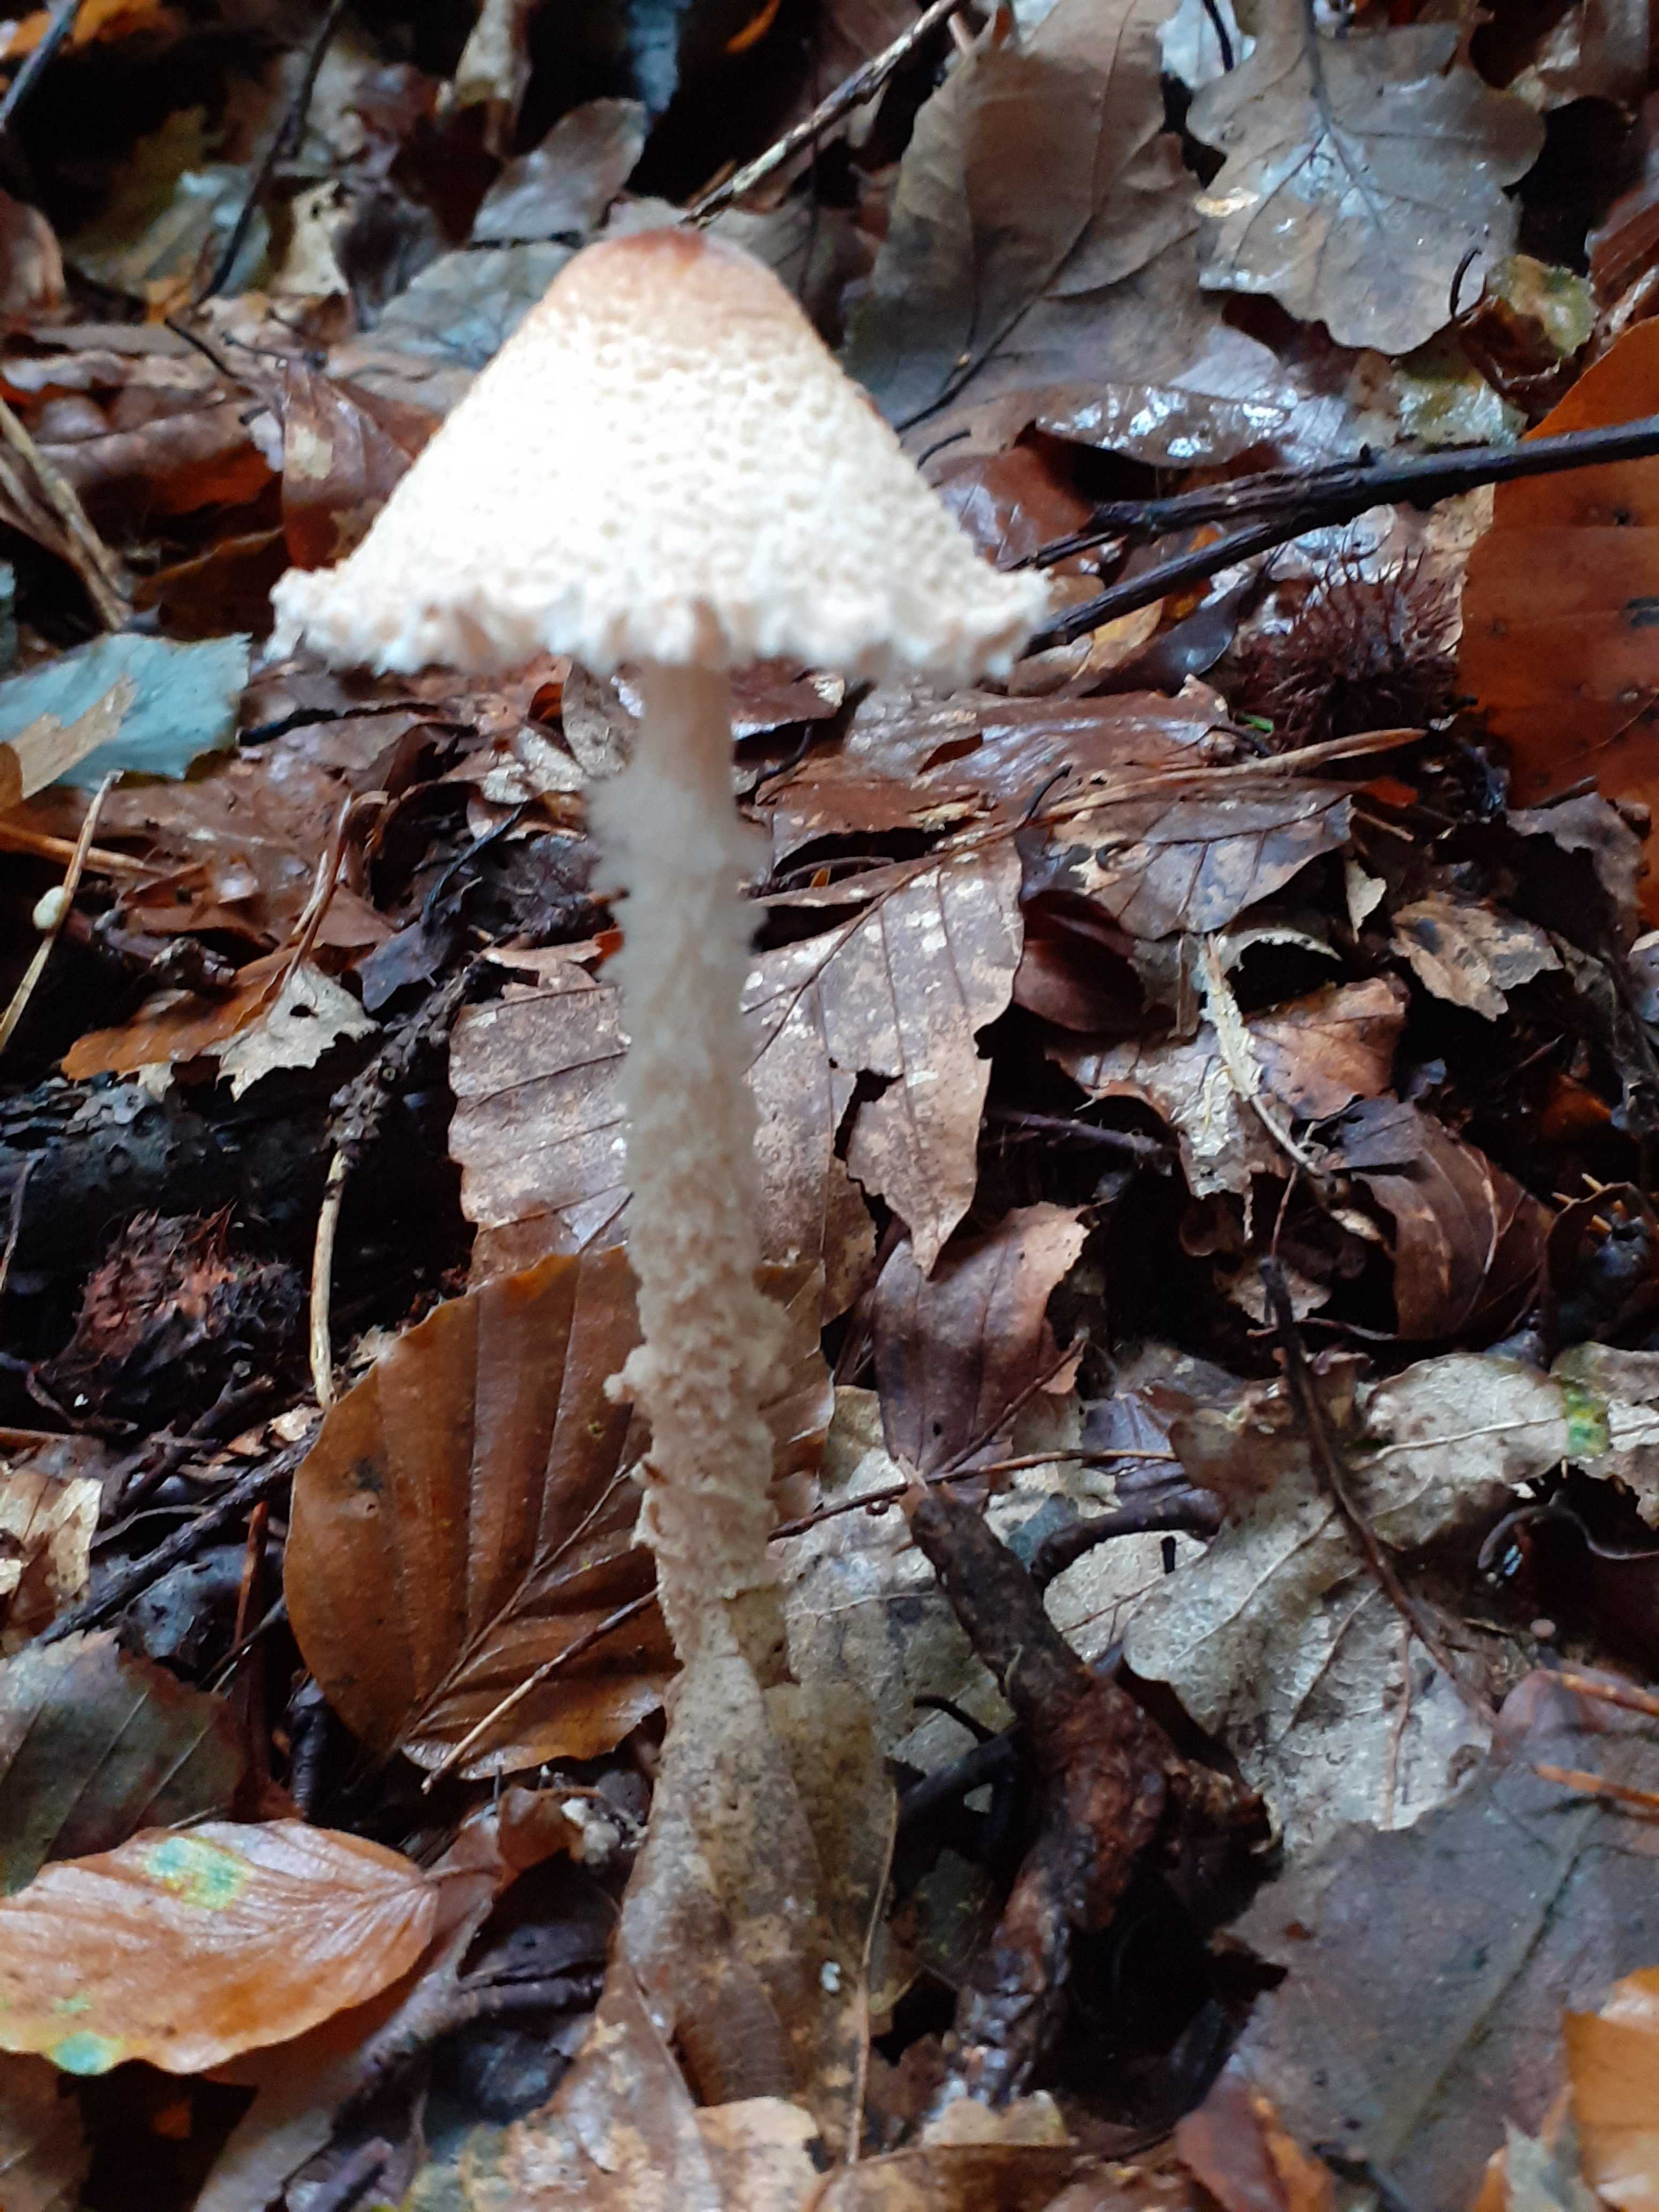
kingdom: Fungi
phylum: Basidiomycota
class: Agaricomycetes
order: Agaricales
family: Agaricaceae
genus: Lepiota
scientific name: Lepiota magnispora
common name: gulfnugget parasolhat
